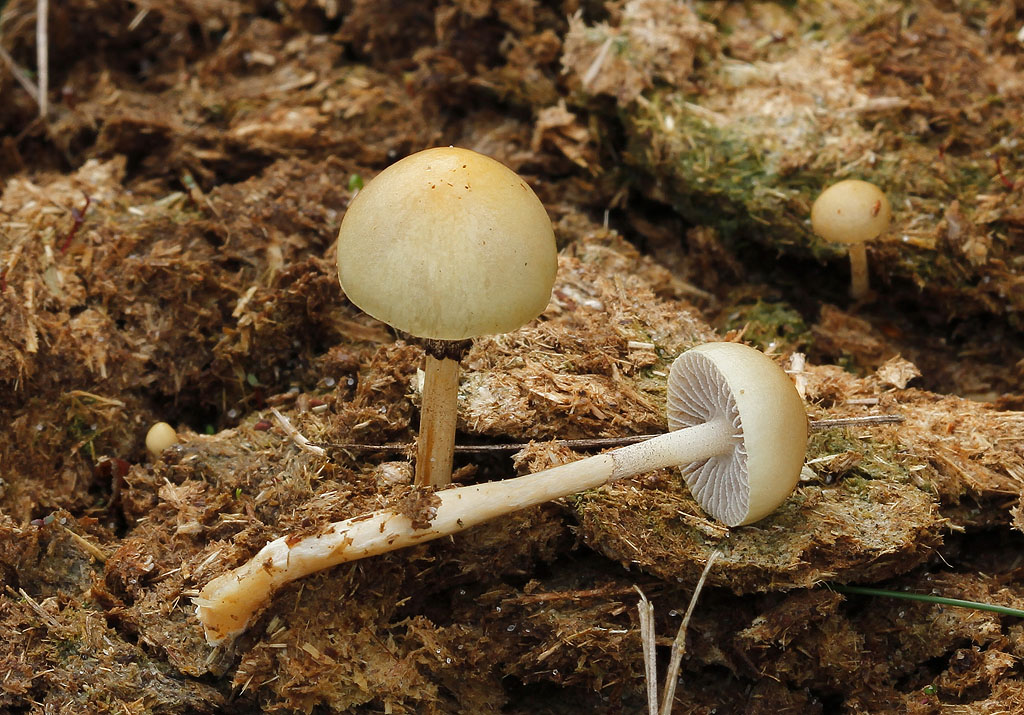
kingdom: Fungi
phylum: Basidiomycota
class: Agaricomycetes
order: Agaricales
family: Strophariaceae
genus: Protostropharia
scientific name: Protostropharia semiglobata
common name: halvkugleformet bredblad
